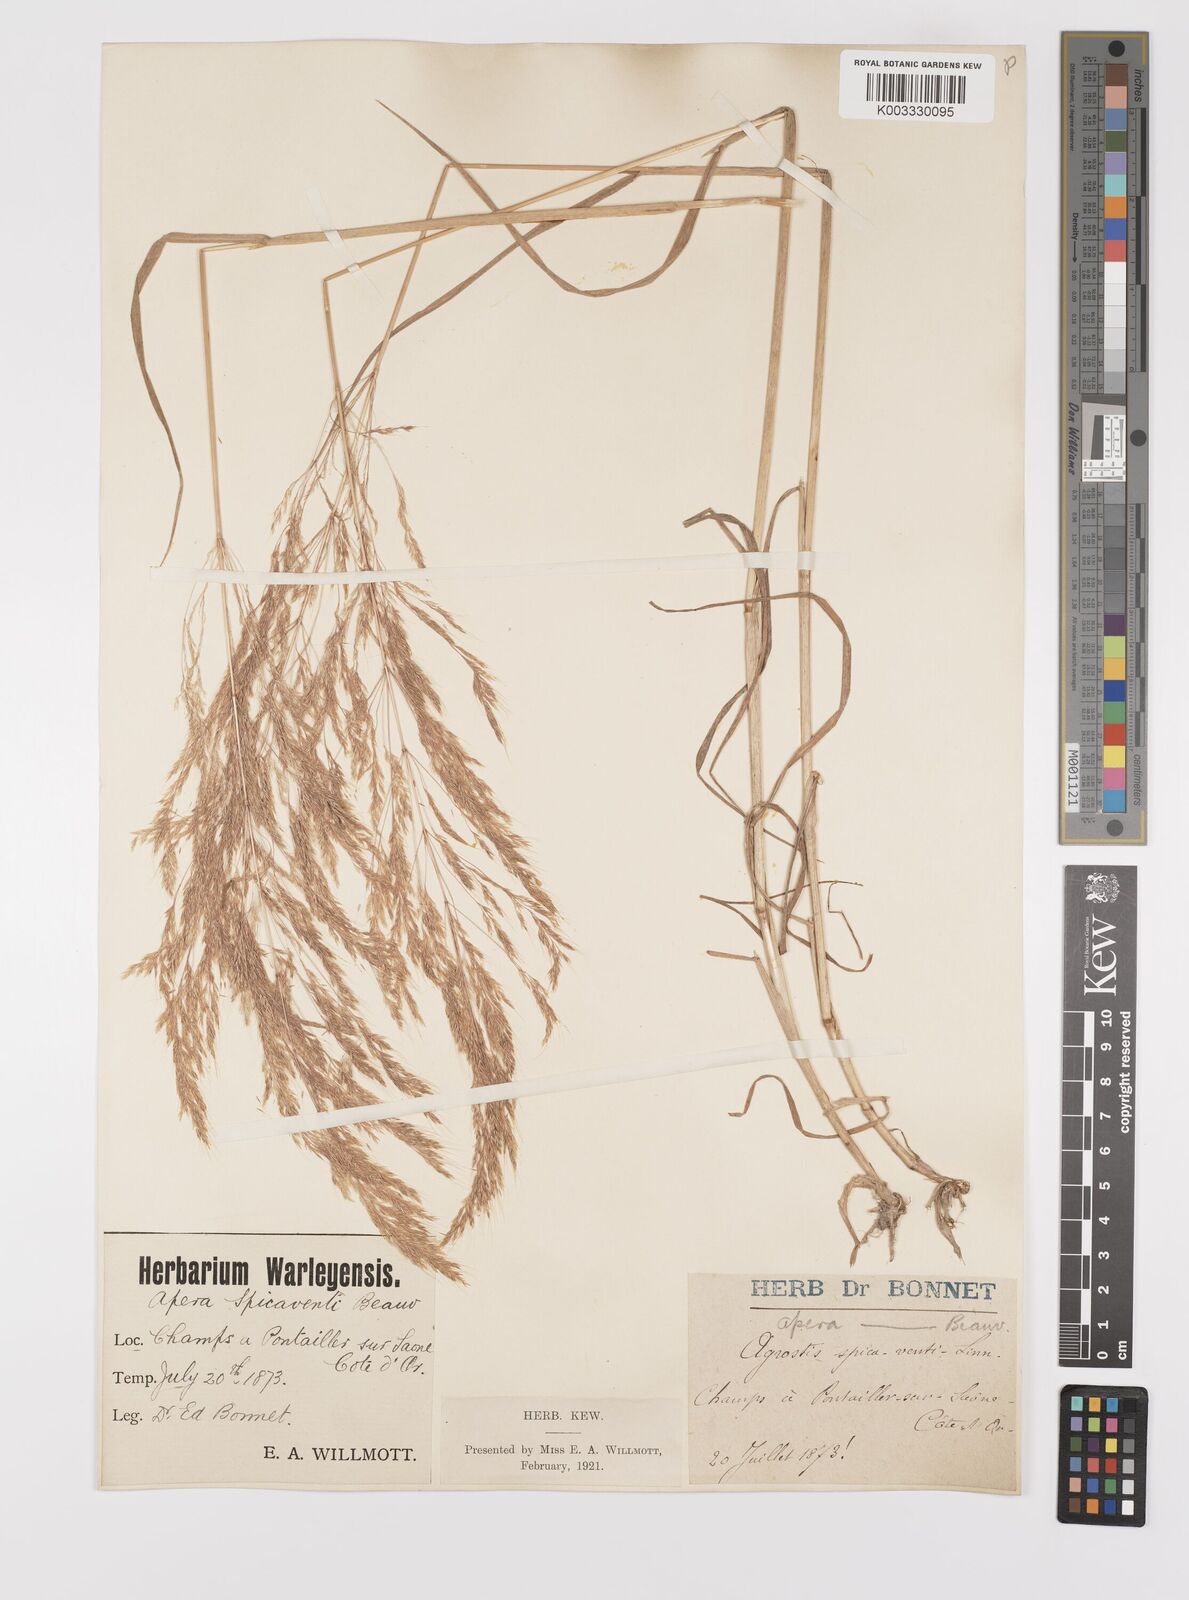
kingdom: Plantae
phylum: Tracheophyta
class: Liliopsida
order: Poales
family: Poaceae
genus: Apera
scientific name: Apera spica-venti
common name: Loose silky-bent
